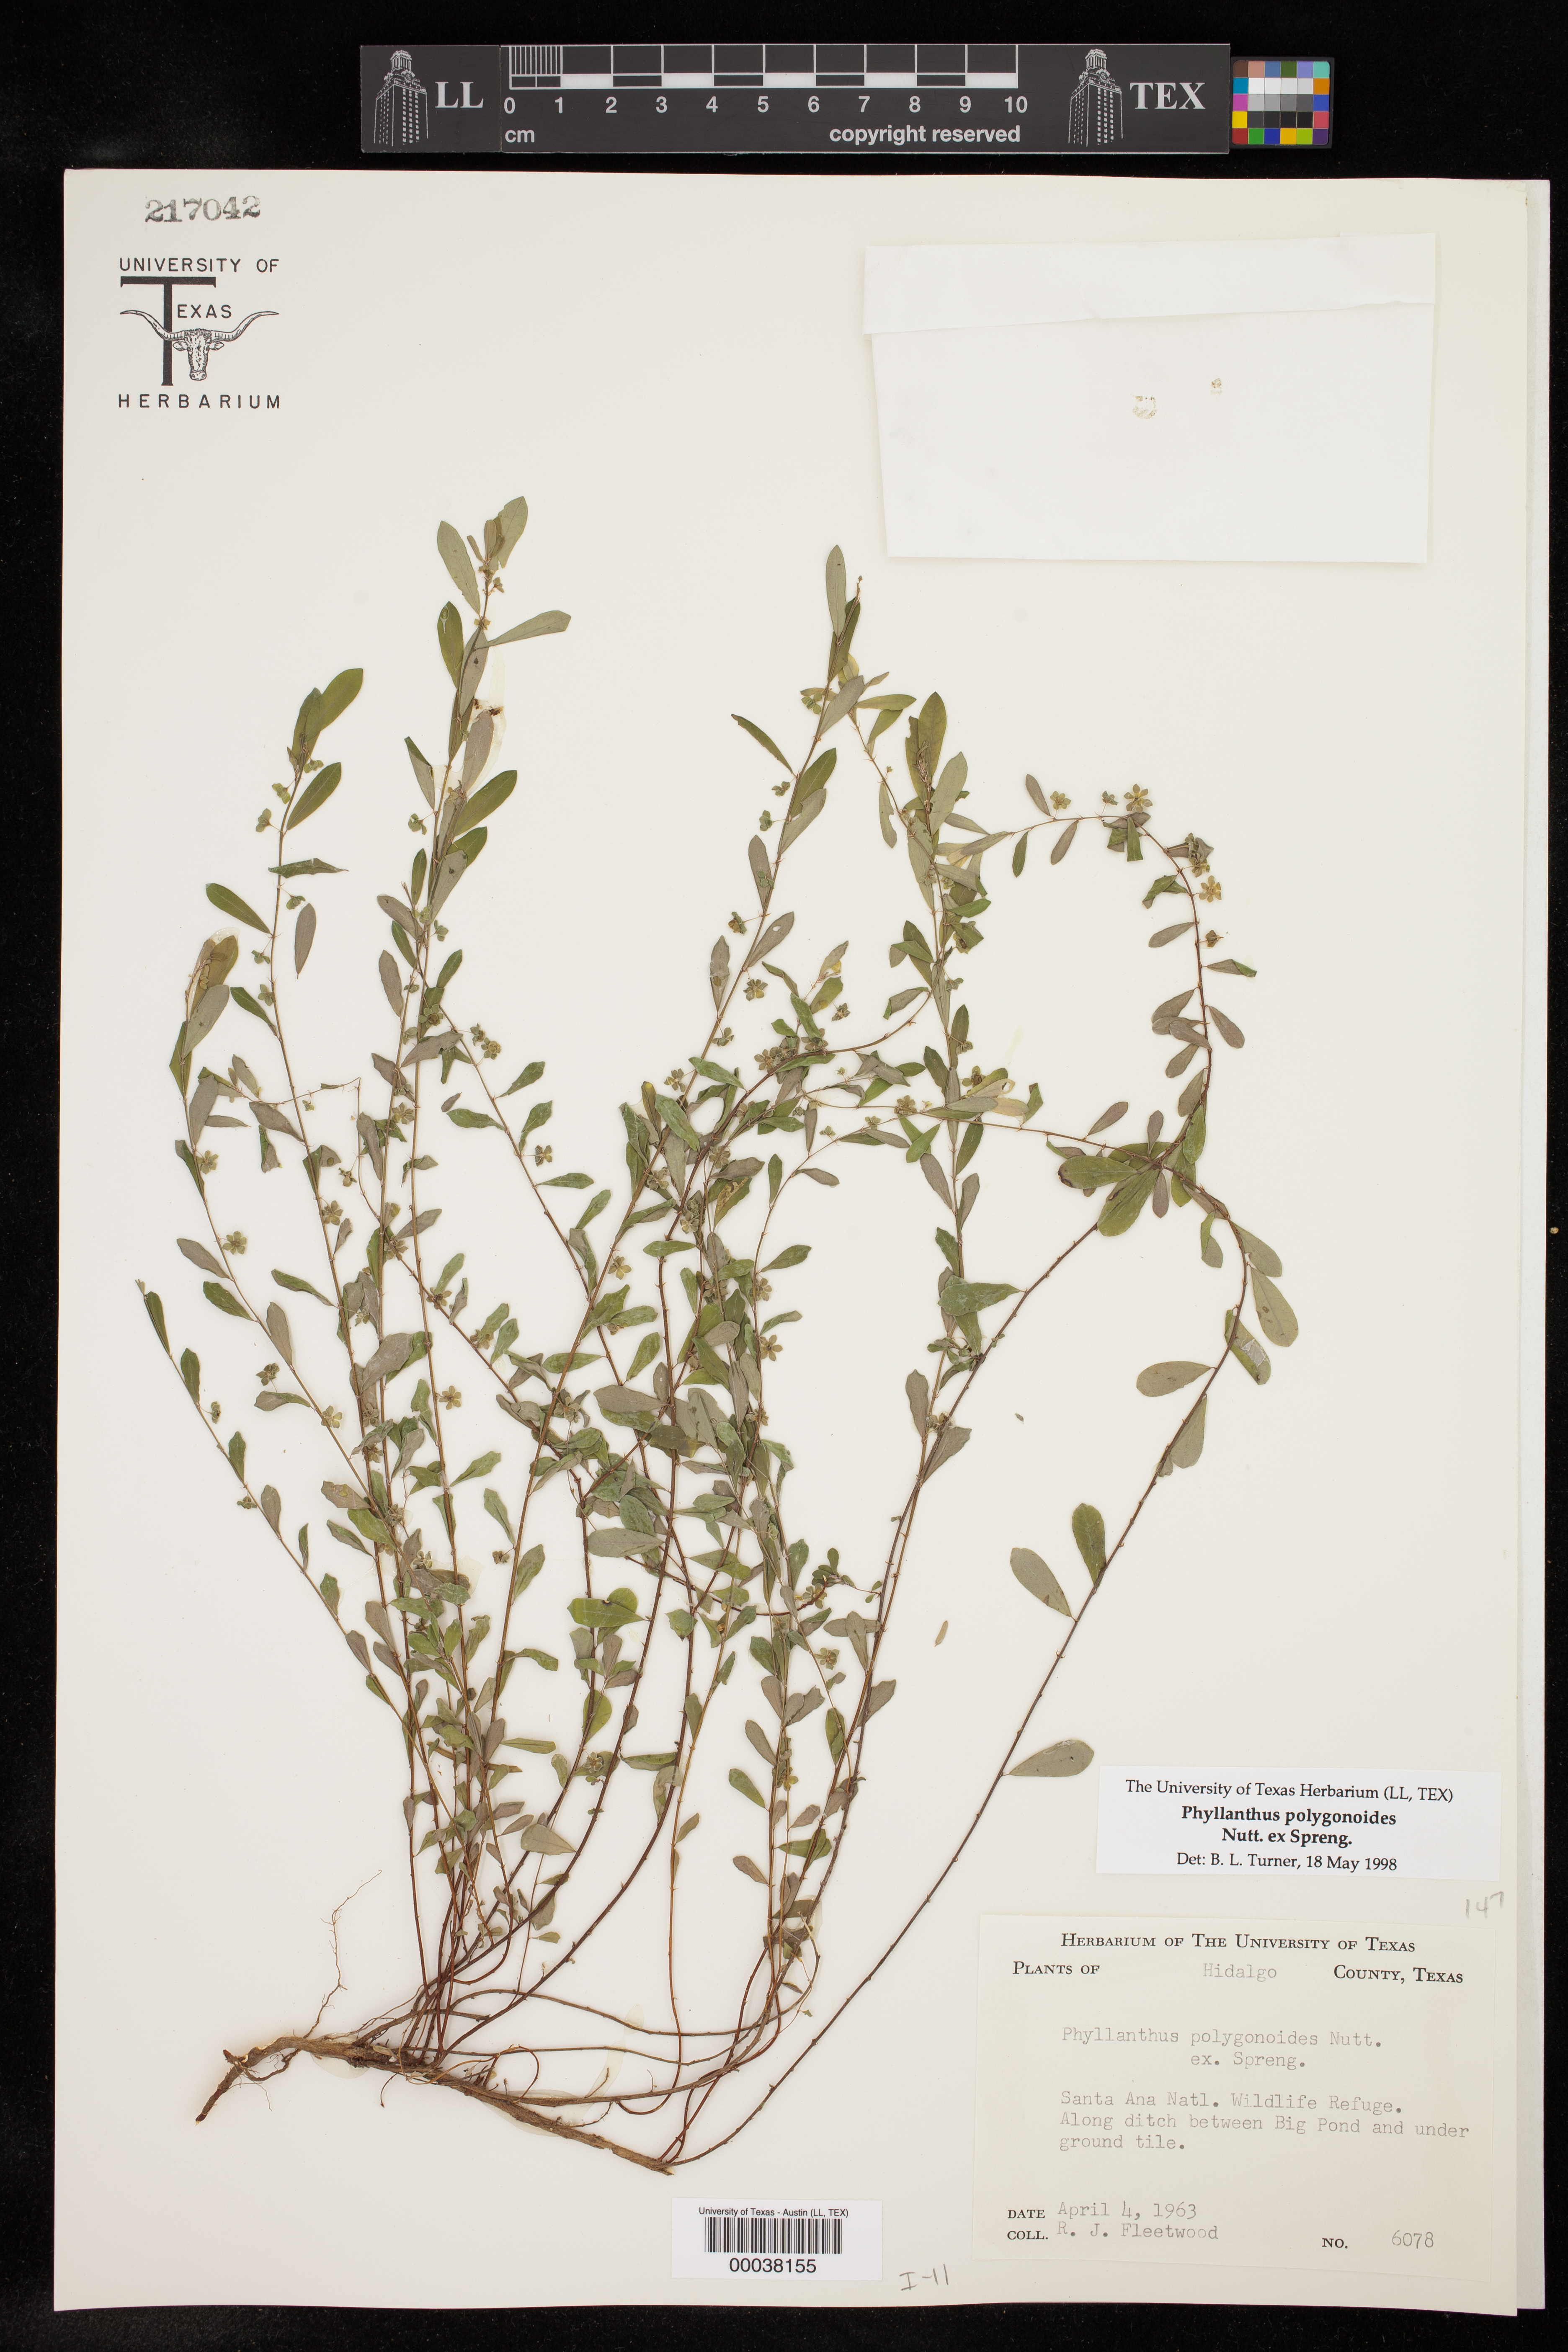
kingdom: Plantae
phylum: Tracheophyta
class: Magnoliopsida
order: Malpighiales
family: Phyllanthaceae
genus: Phyllanthus
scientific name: Phyllanthus polygonoides
